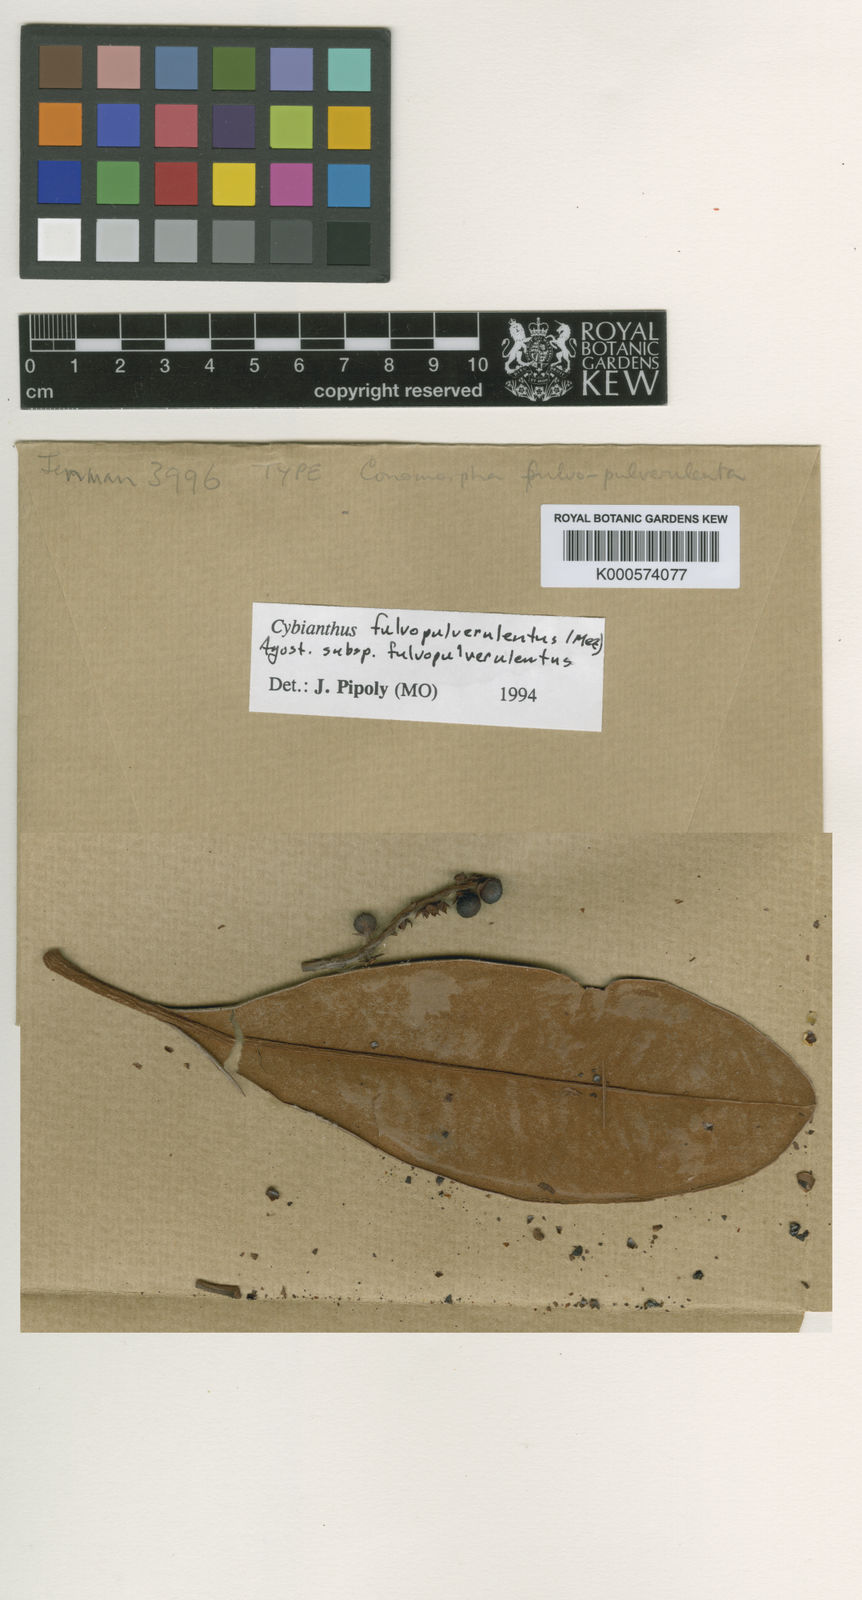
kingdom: Plantae
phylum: Tracheophyta
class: Magnoliopsida
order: Ericales
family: Primulaceae
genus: Cybianthus
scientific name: Cybianthus fulvopulverulentus
